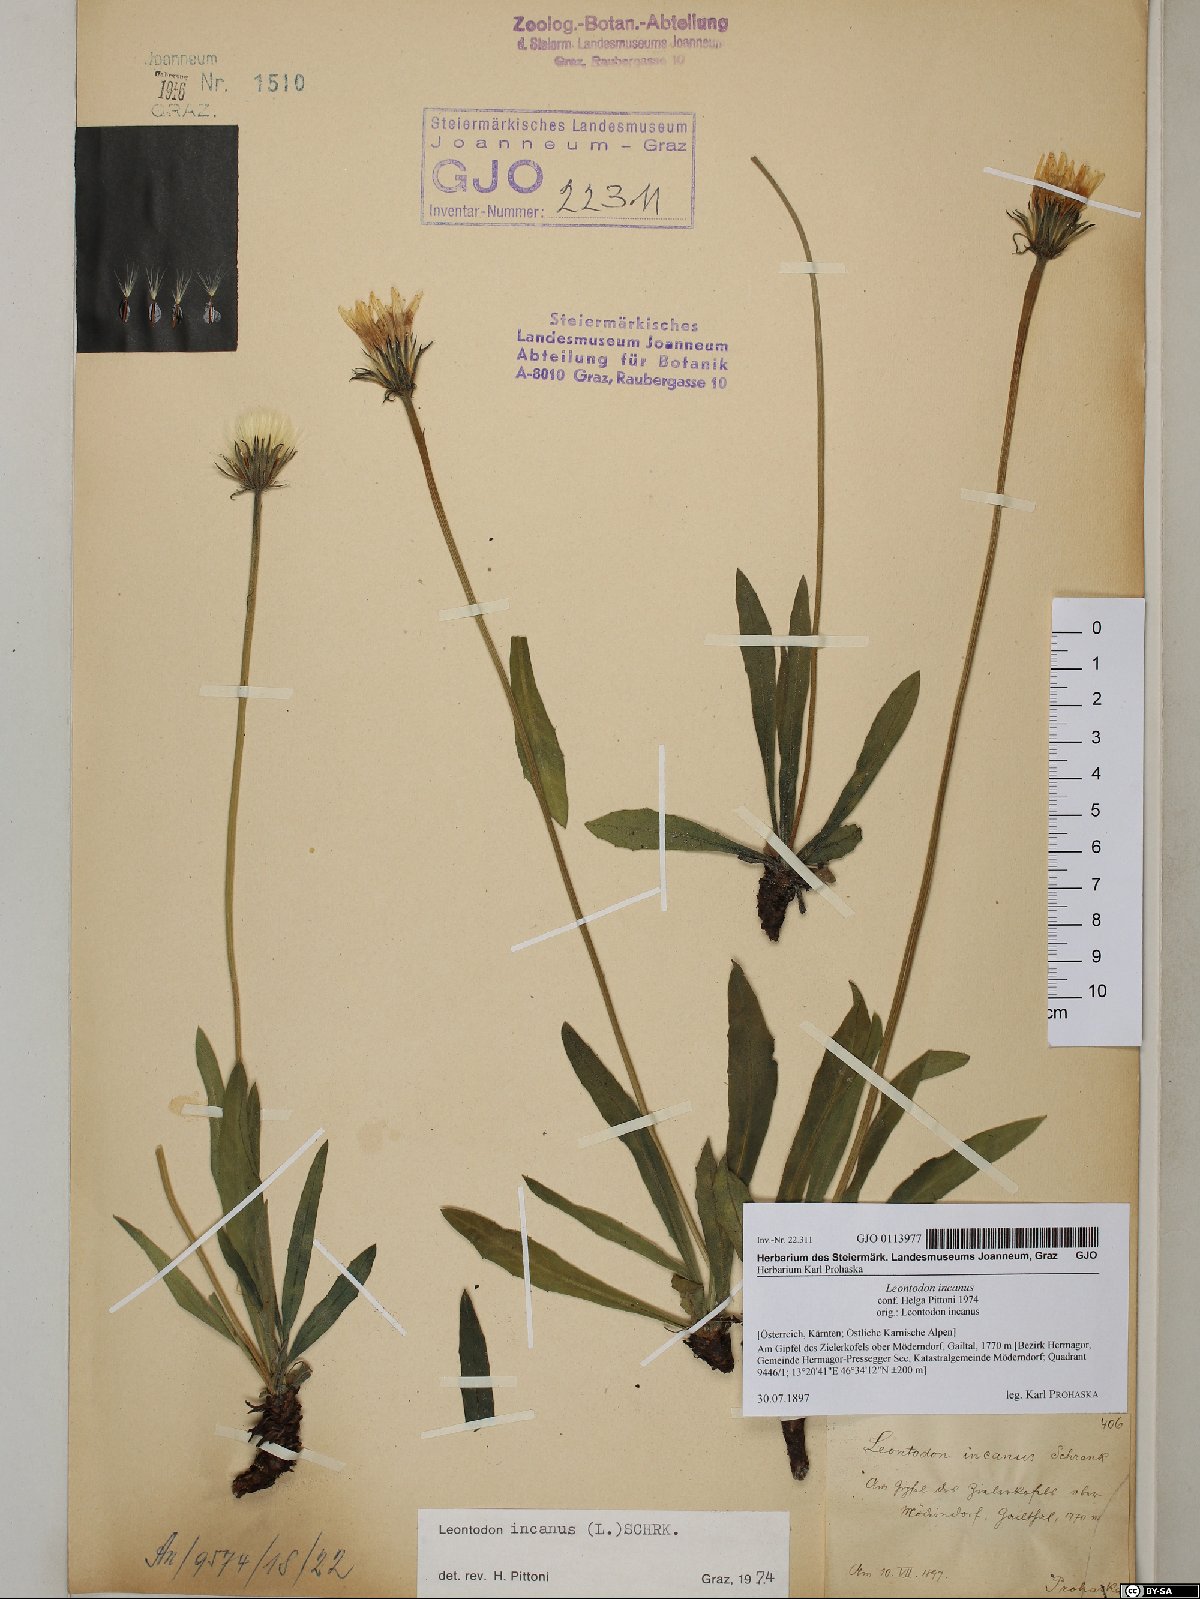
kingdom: Plantae
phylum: Tracheophyta
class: Magnoliopsida
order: Asterales
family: Asteraceae
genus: Leontodon
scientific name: Leontodon incanus
